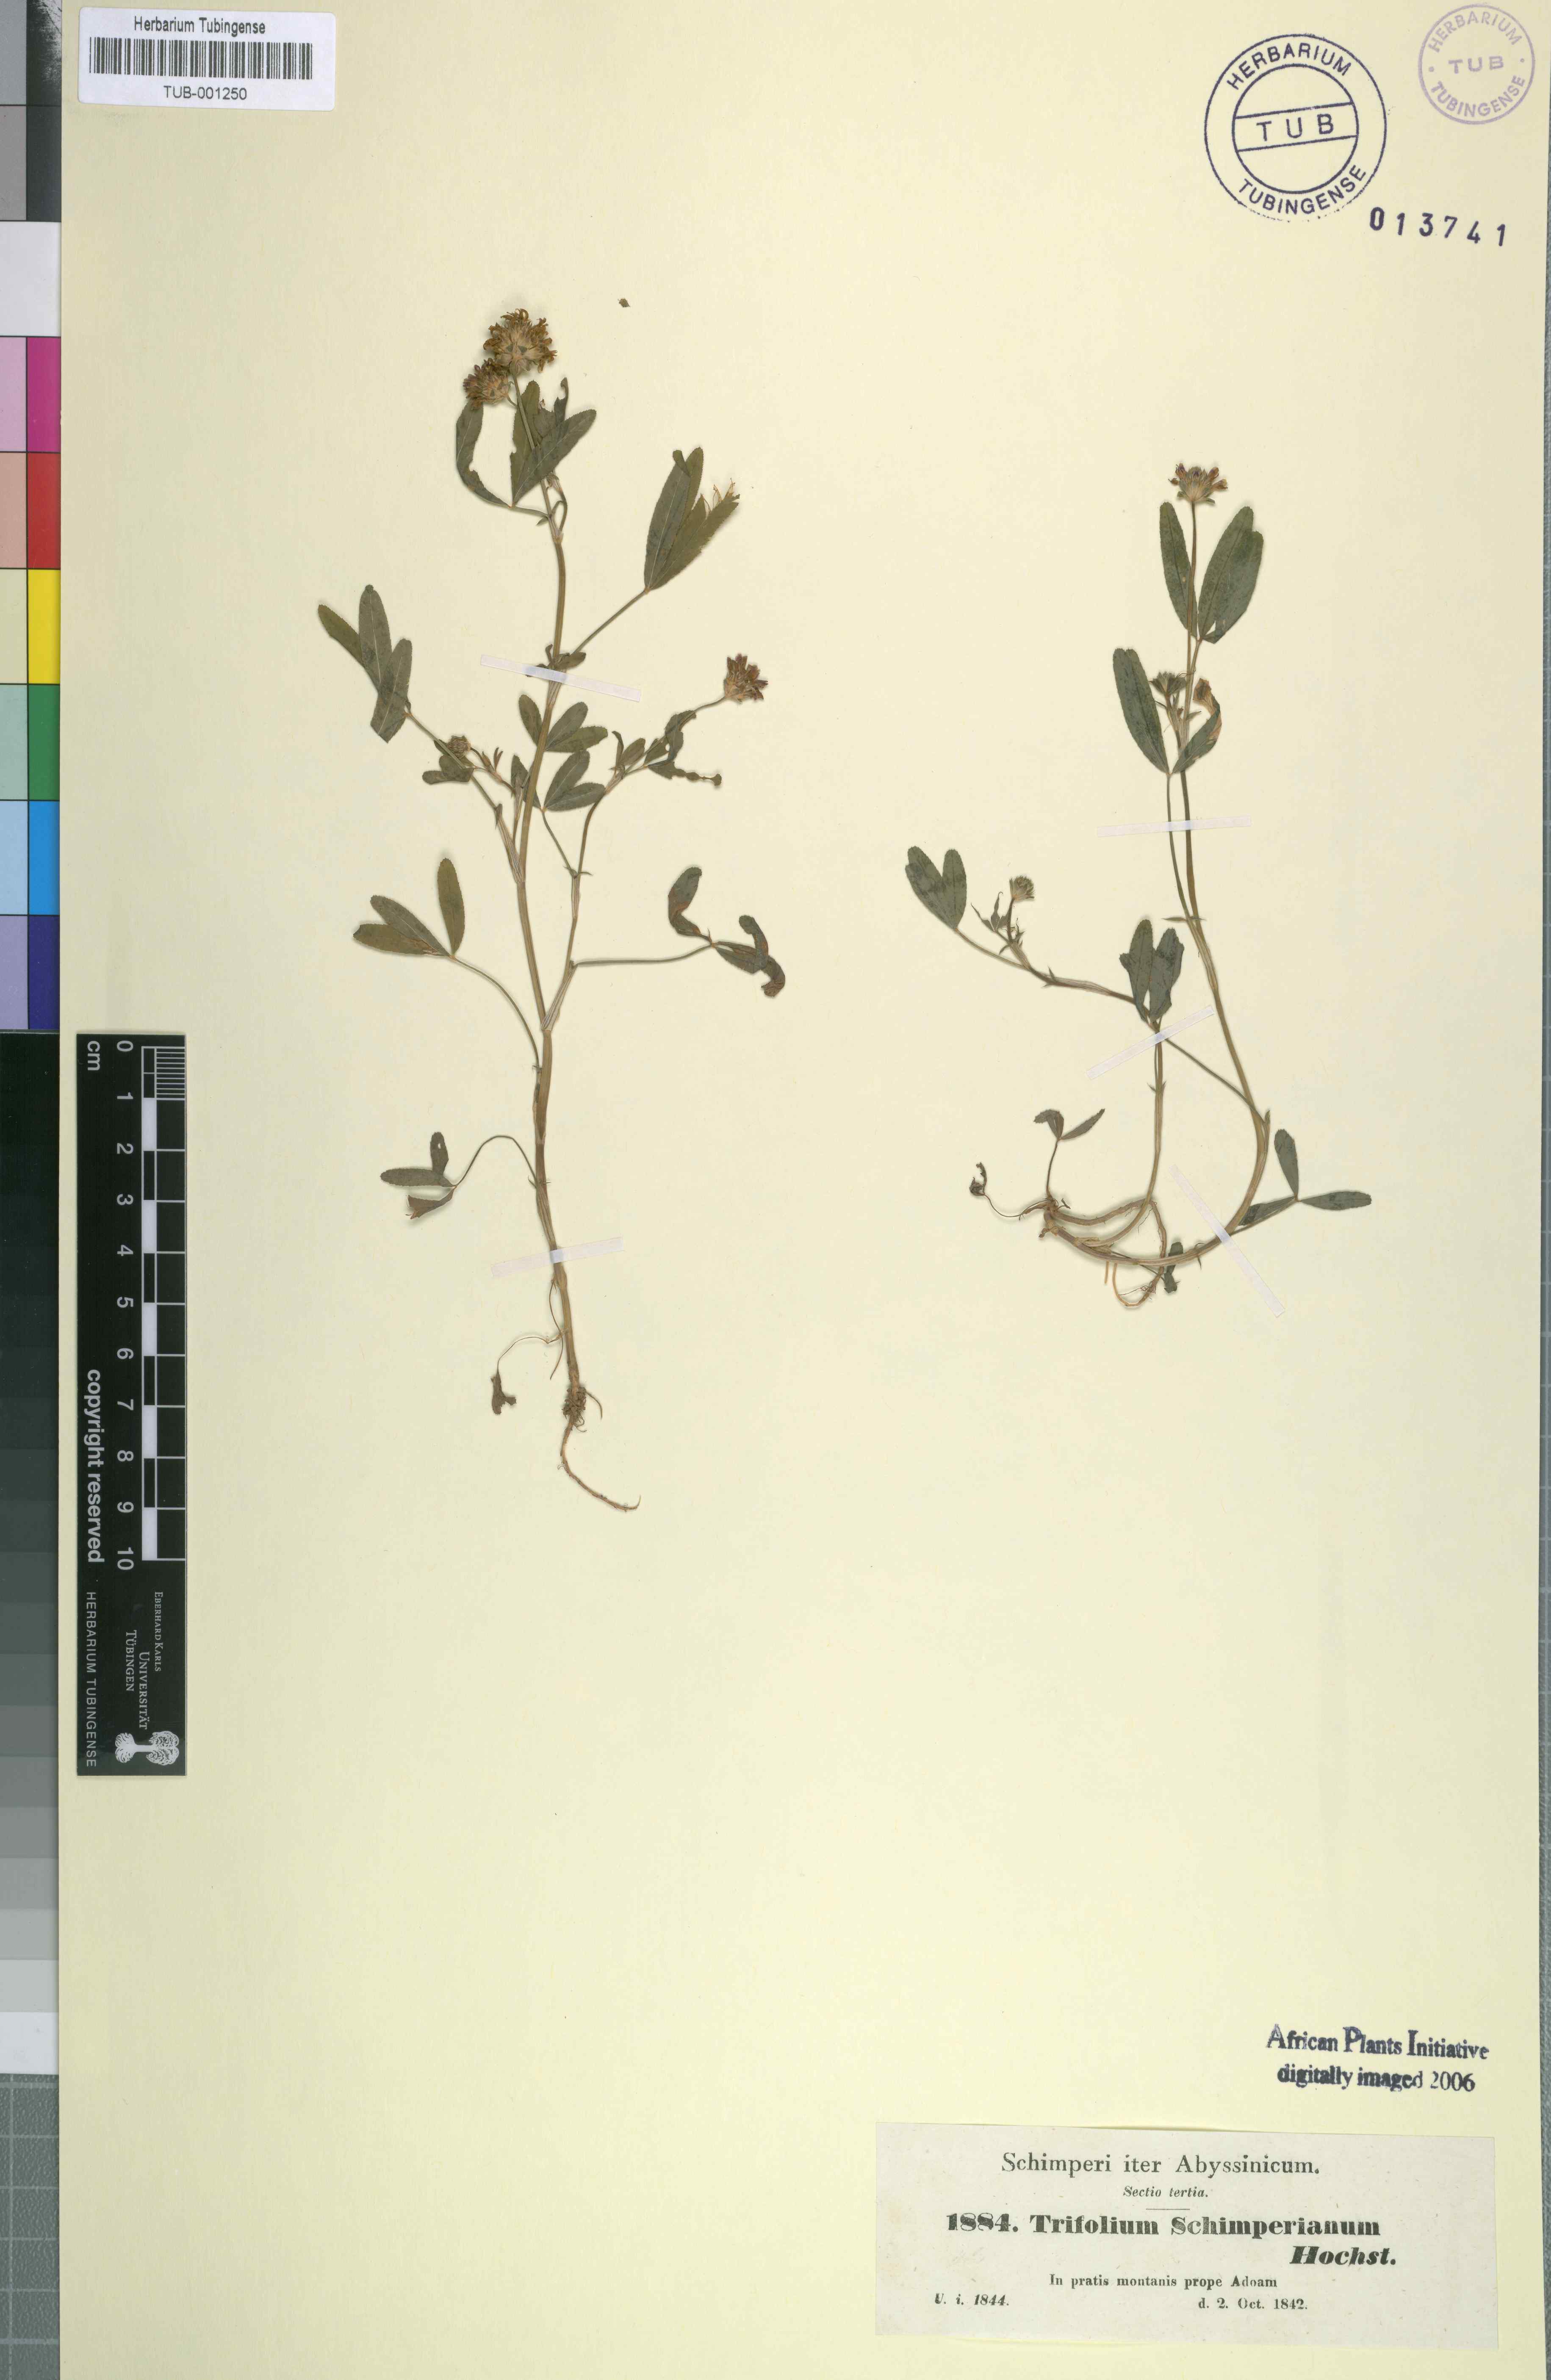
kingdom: Plantae
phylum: Tracheophyta
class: Magnoliopsida
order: Fabales
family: Fabaceae
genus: Trifolium
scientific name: Trifolium schimperi
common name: Schimper's clover
